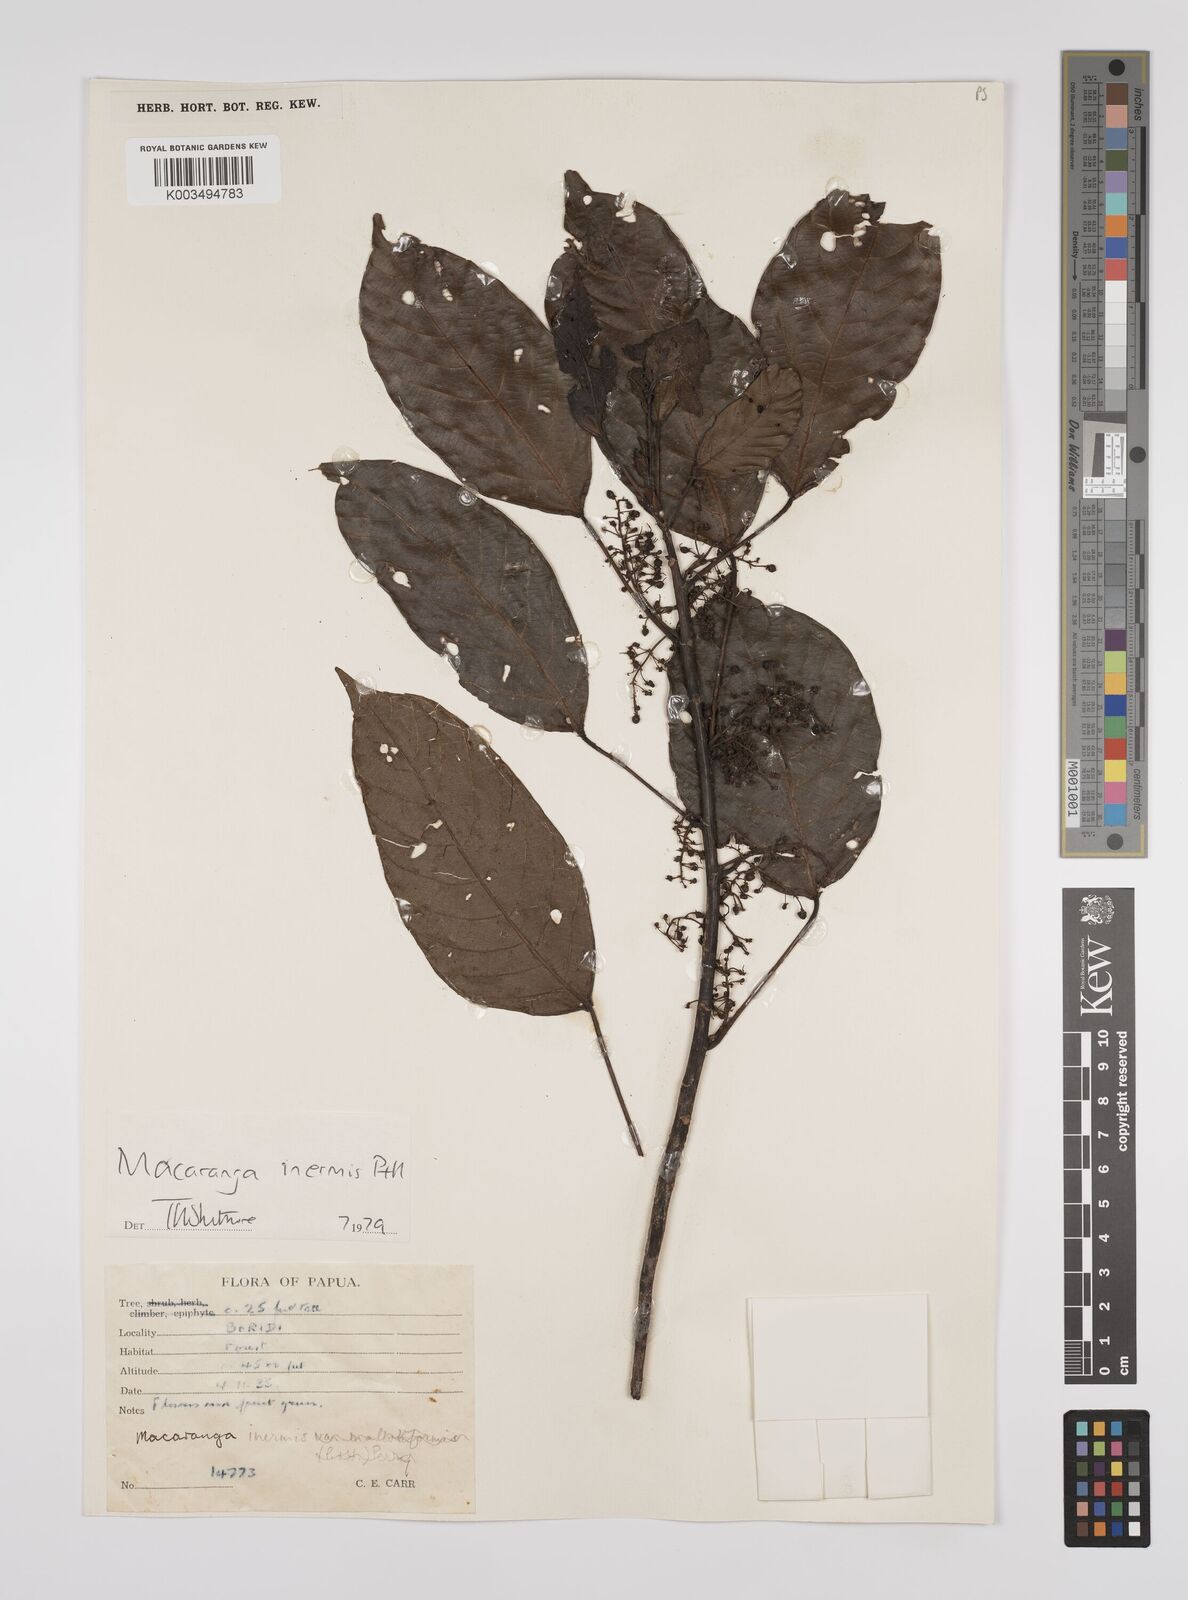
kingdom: Plantae
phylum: Tracheophyta
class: Magnoliopsida
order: Malpighiales
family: Euphorbiaceae
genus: Macaranga
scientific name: Macaranga inermis
